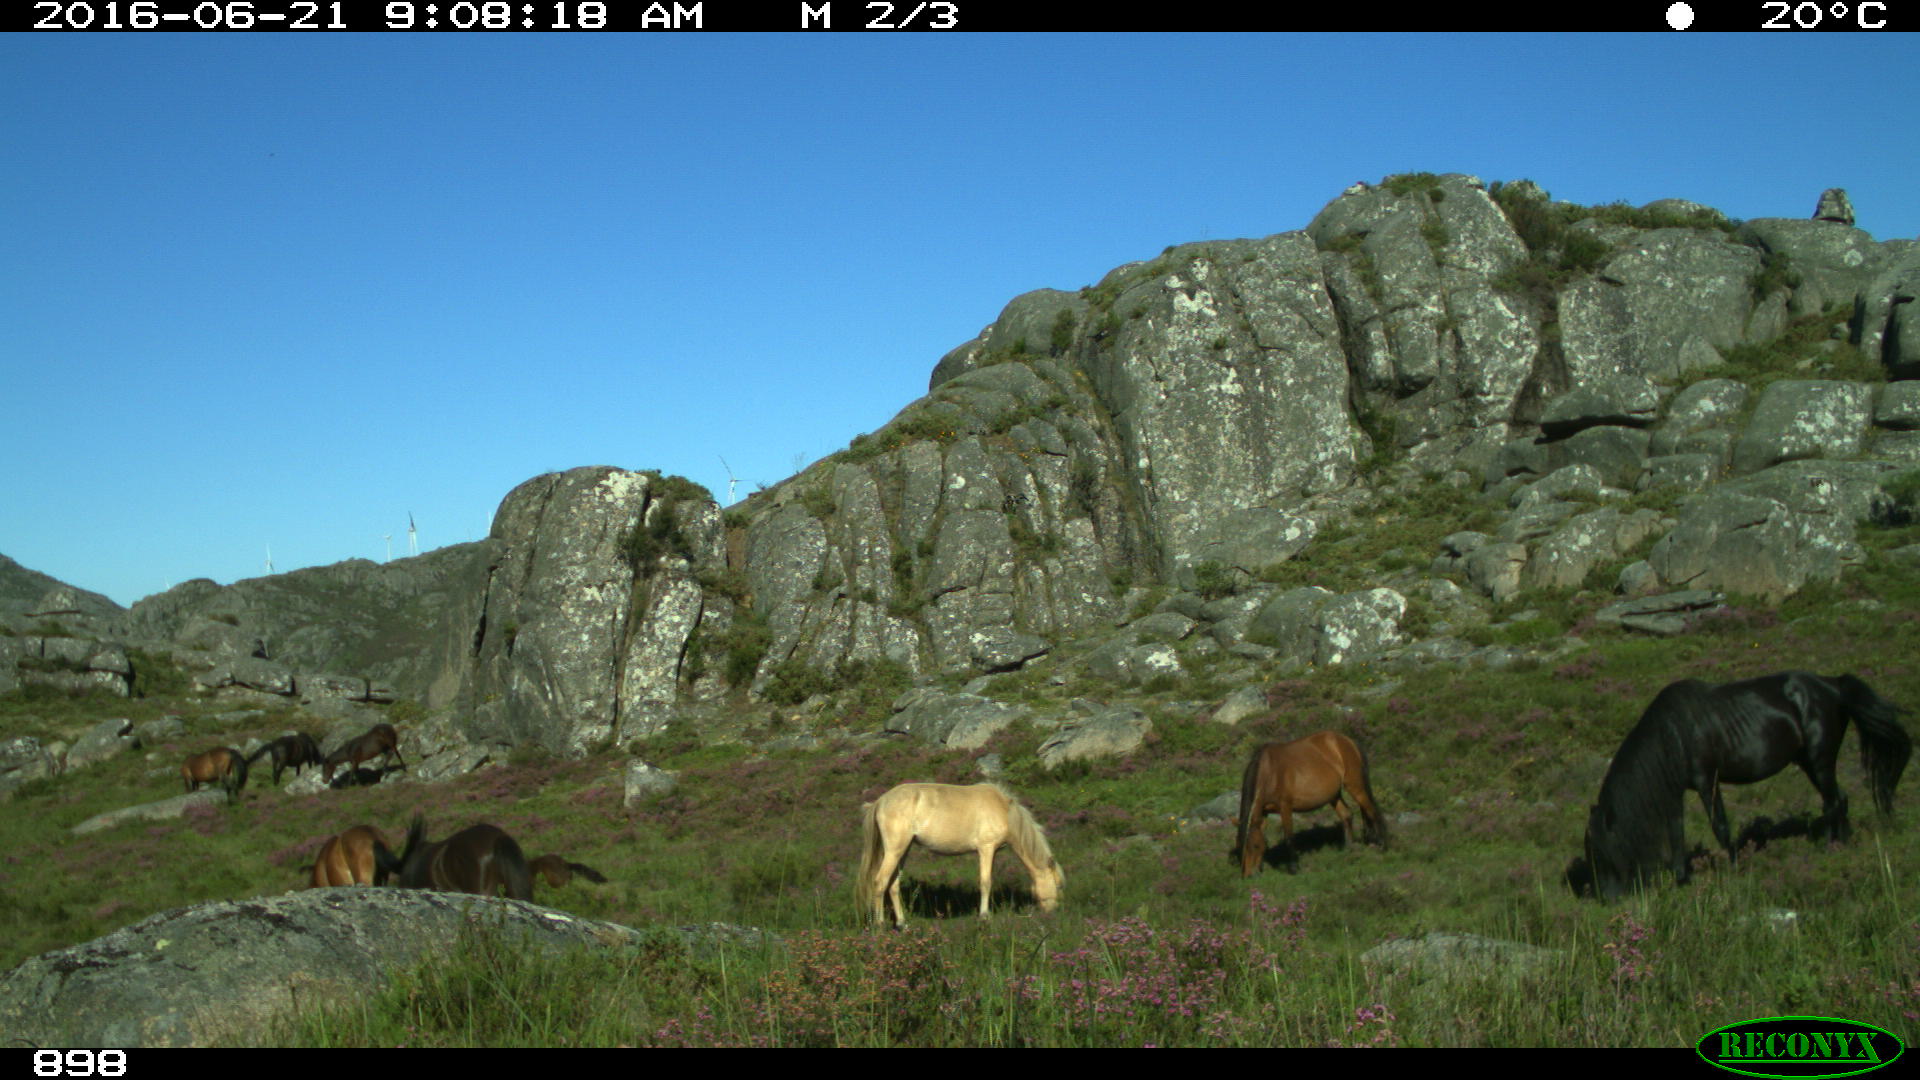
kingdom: Animalia
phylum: Chordata
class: Mammalia
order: Perissodactyla
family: Equidae
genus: Equus
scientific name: Equus caballus
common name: Horse
